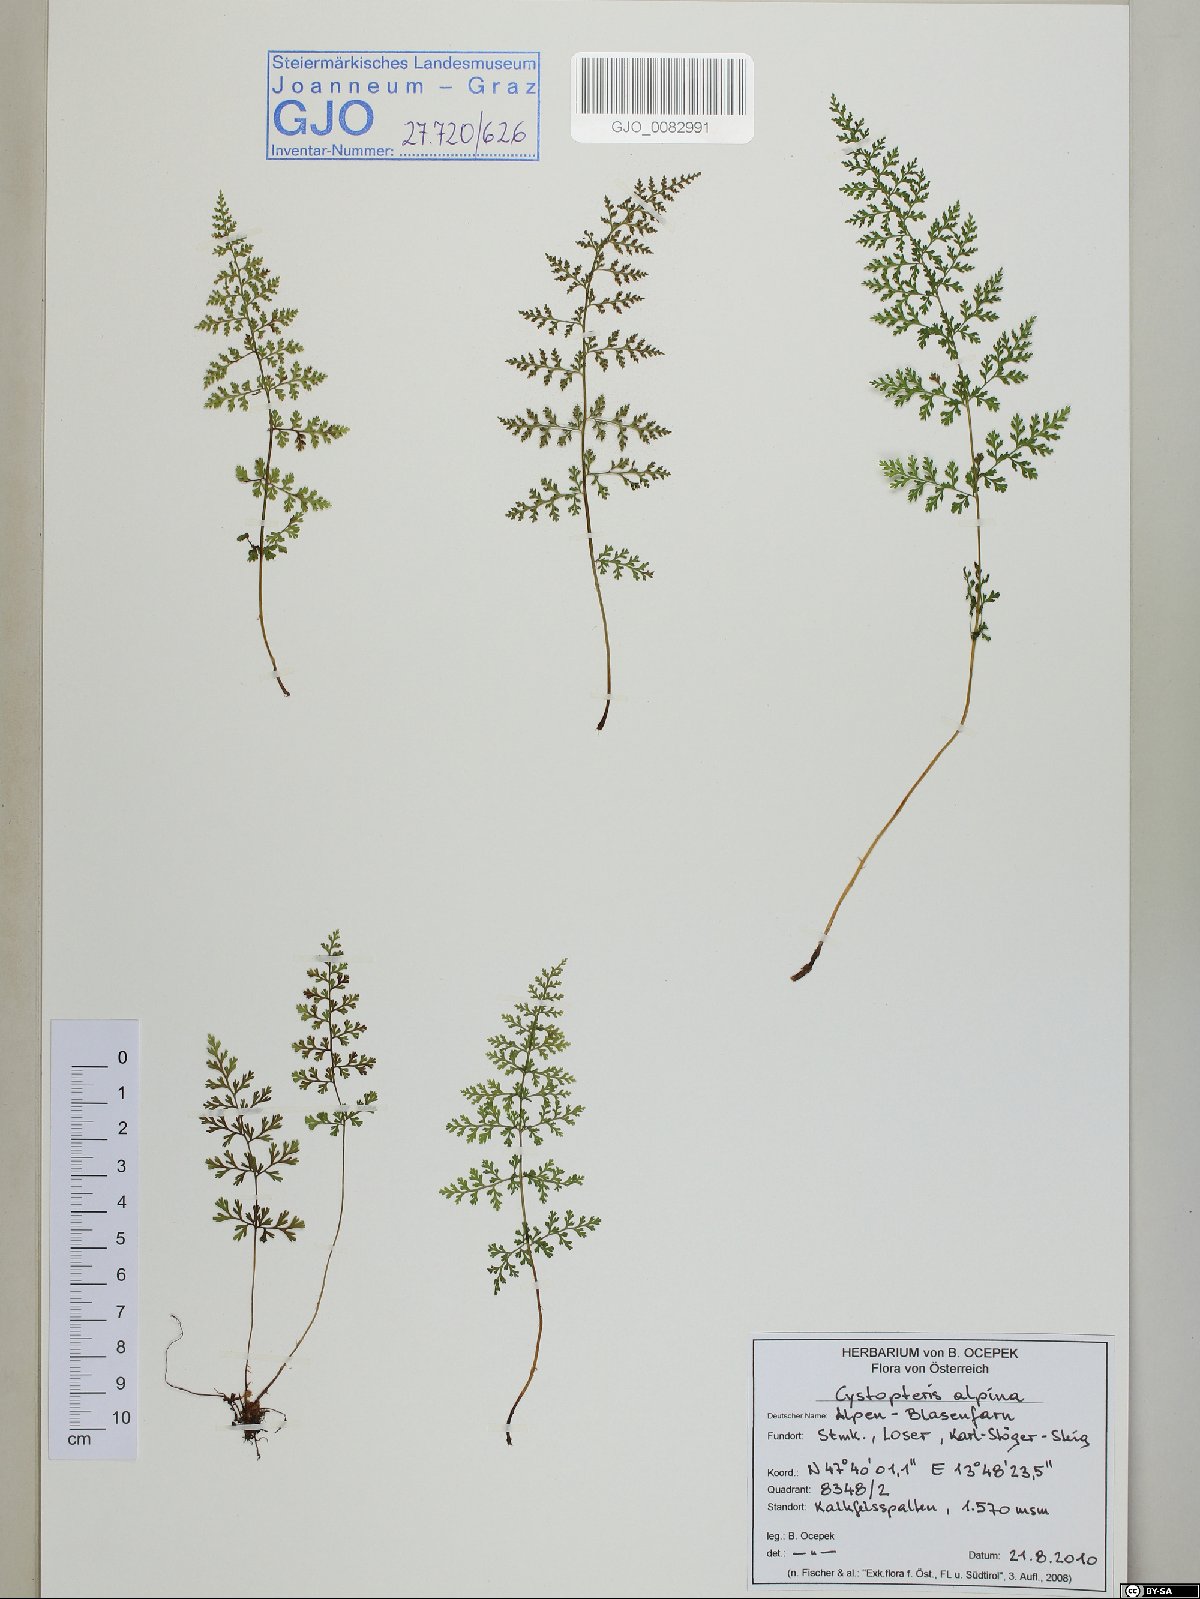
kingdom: Plantae
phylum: Tracheophyta
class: Polypodiopsida
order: Polypodiales
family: Cystopteridaceae
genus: Cystopteris
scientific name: Cystopteris alpina
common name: Alpine bladder-fern
